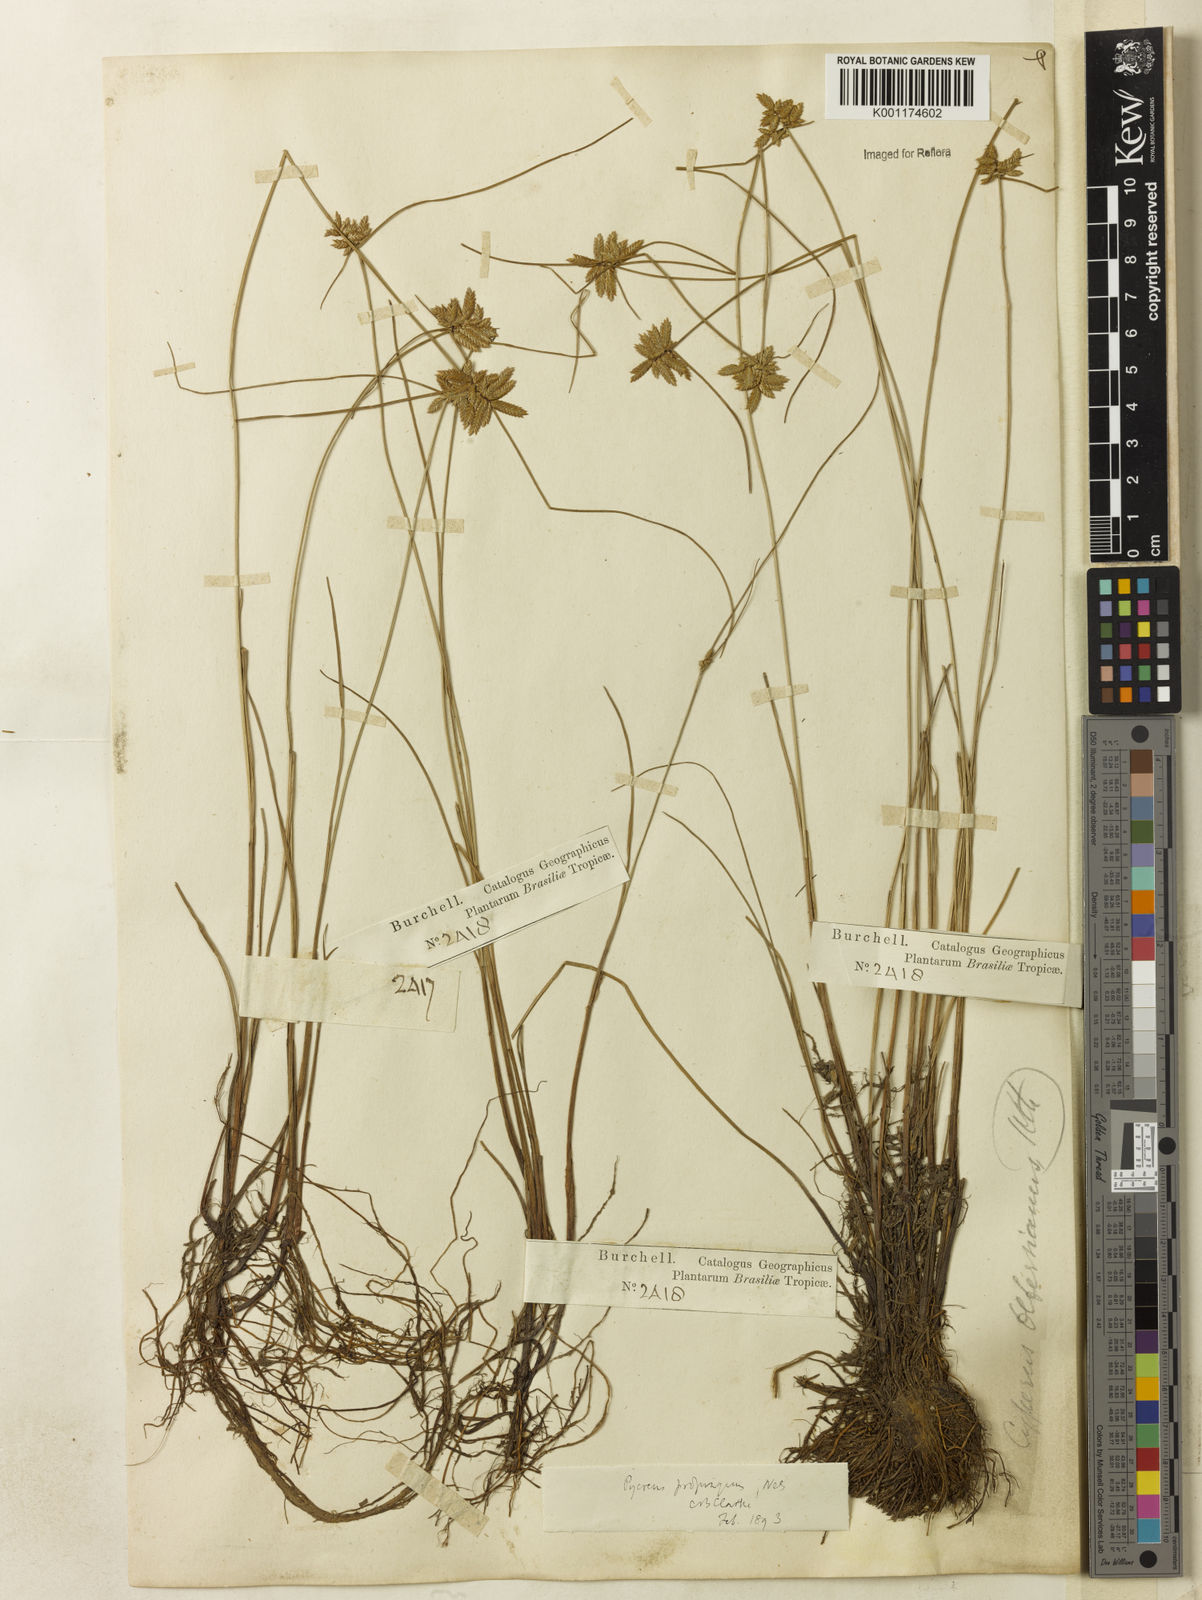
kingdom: Plantae
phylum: Tracheophyta
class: Liliopsida
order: Poales
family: Cyperaceae
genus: Cyperus
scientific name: Cyperus lanceolatus
